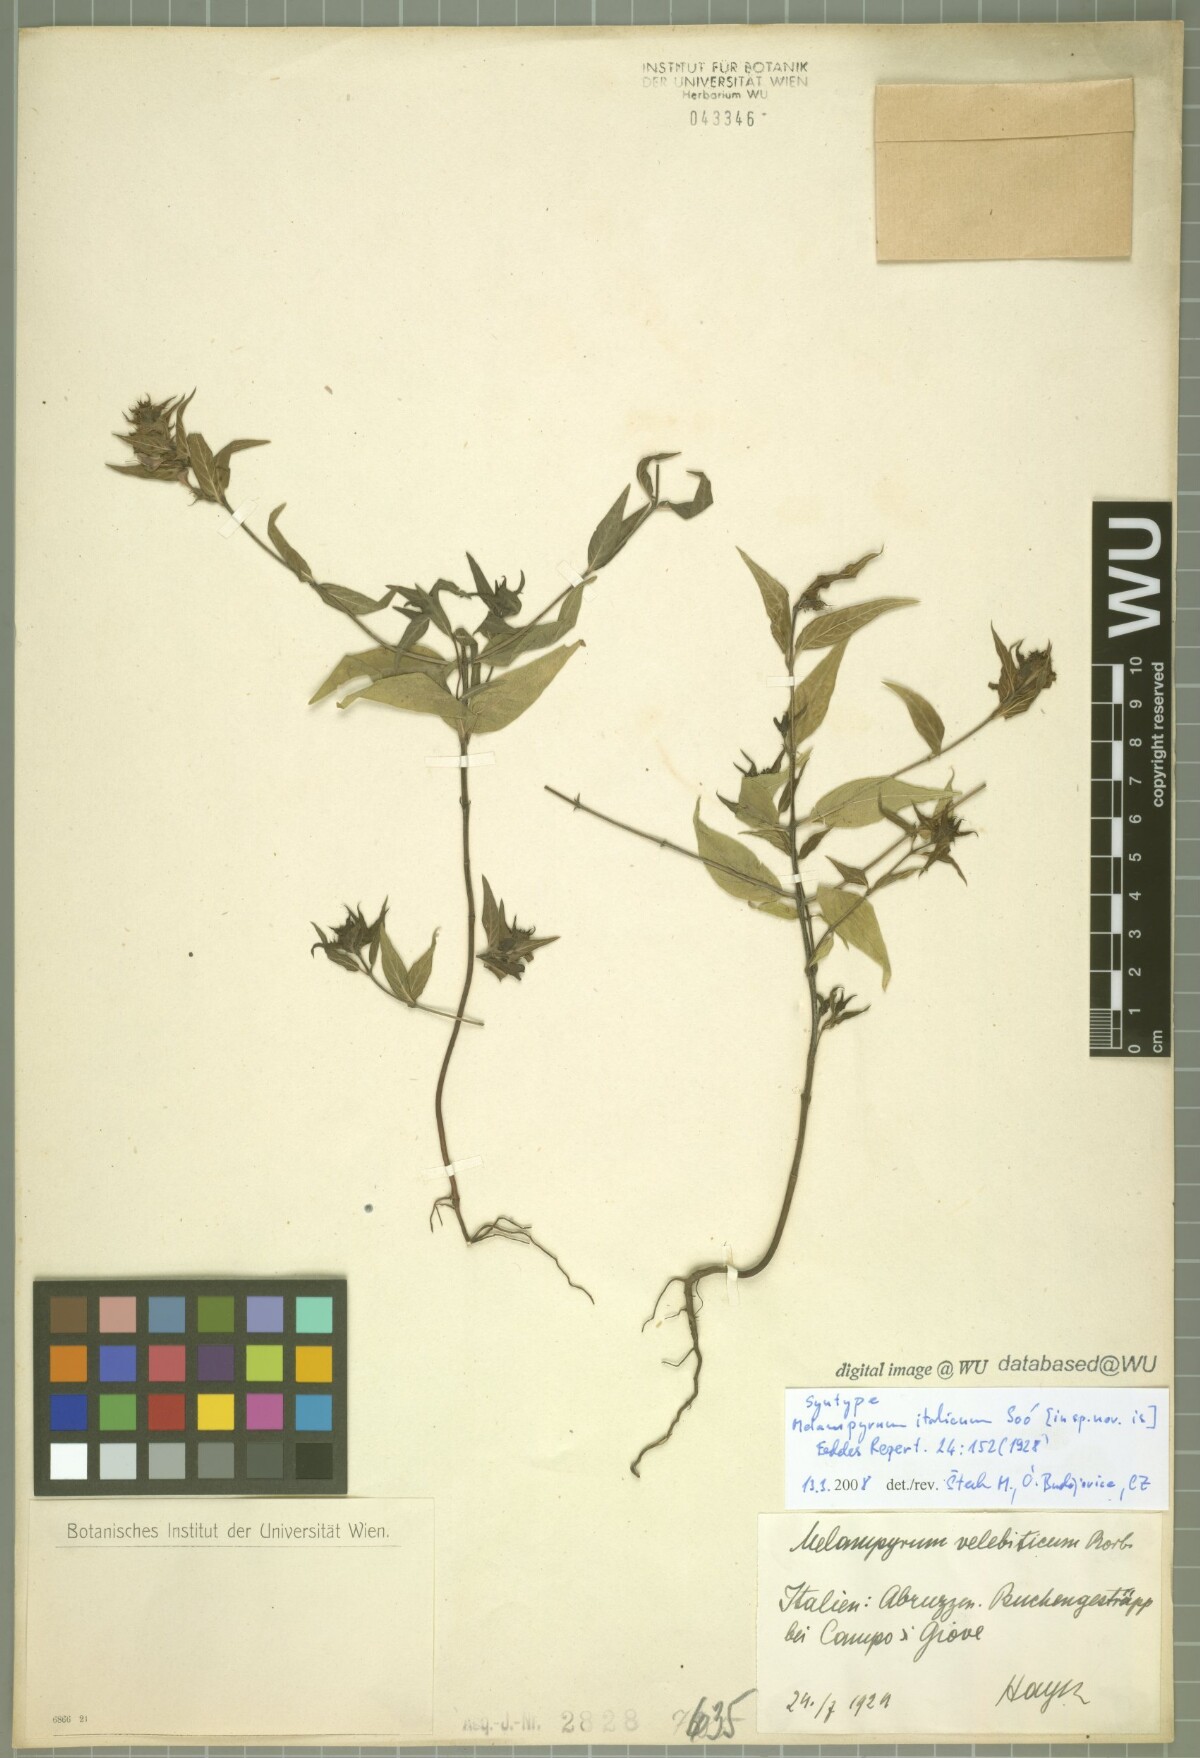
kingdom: Plantae
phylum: Tracheophyta
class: Magnoliopsida
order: Lamiales
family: Orobanchaceae
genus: Melampyrum
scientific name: Melampyrum italicum
